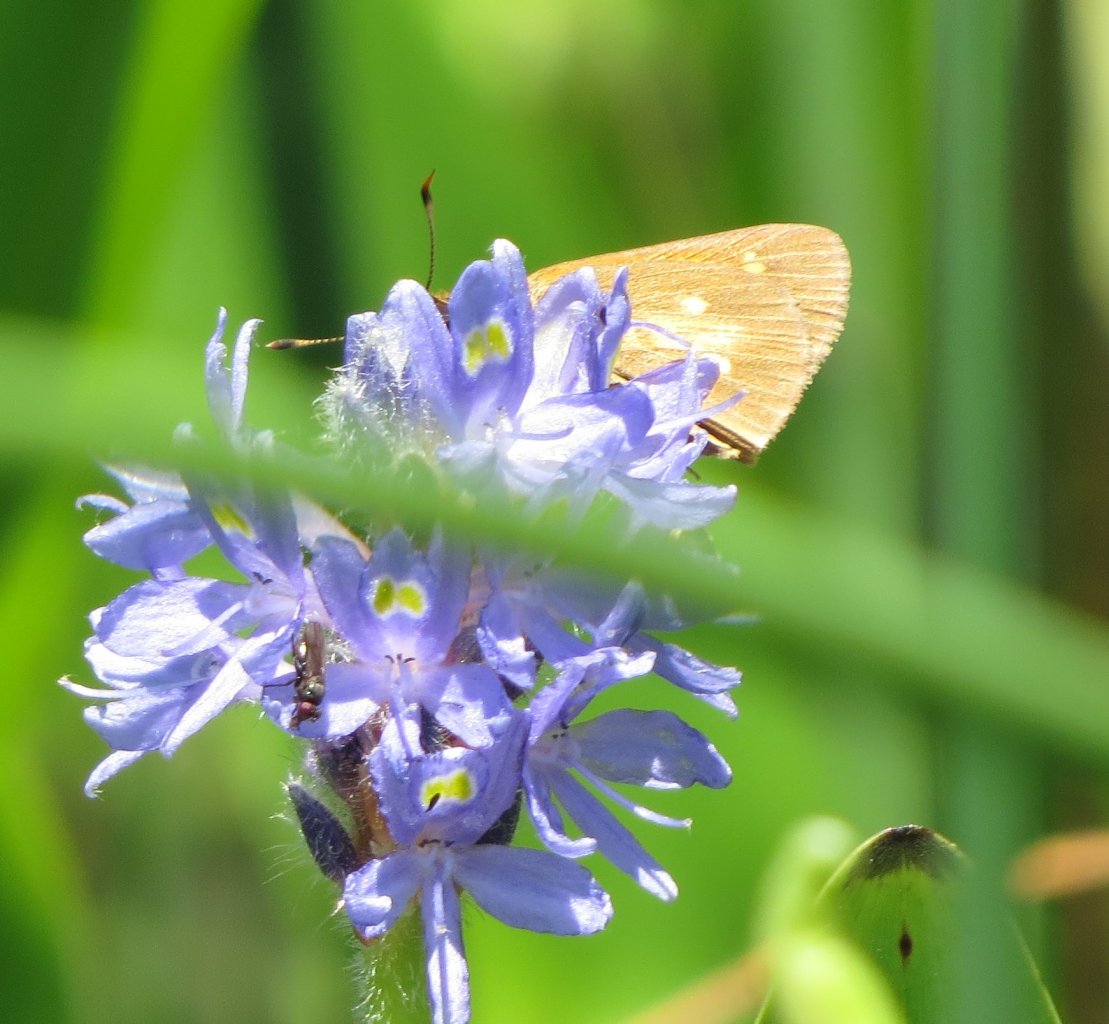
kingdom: Animalia
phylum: Arthropoda
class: Insecta
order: Lepidoptera
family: Hesperiidae
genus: Poanes
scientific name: Poanes viator
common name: Broad-winged Skipper
